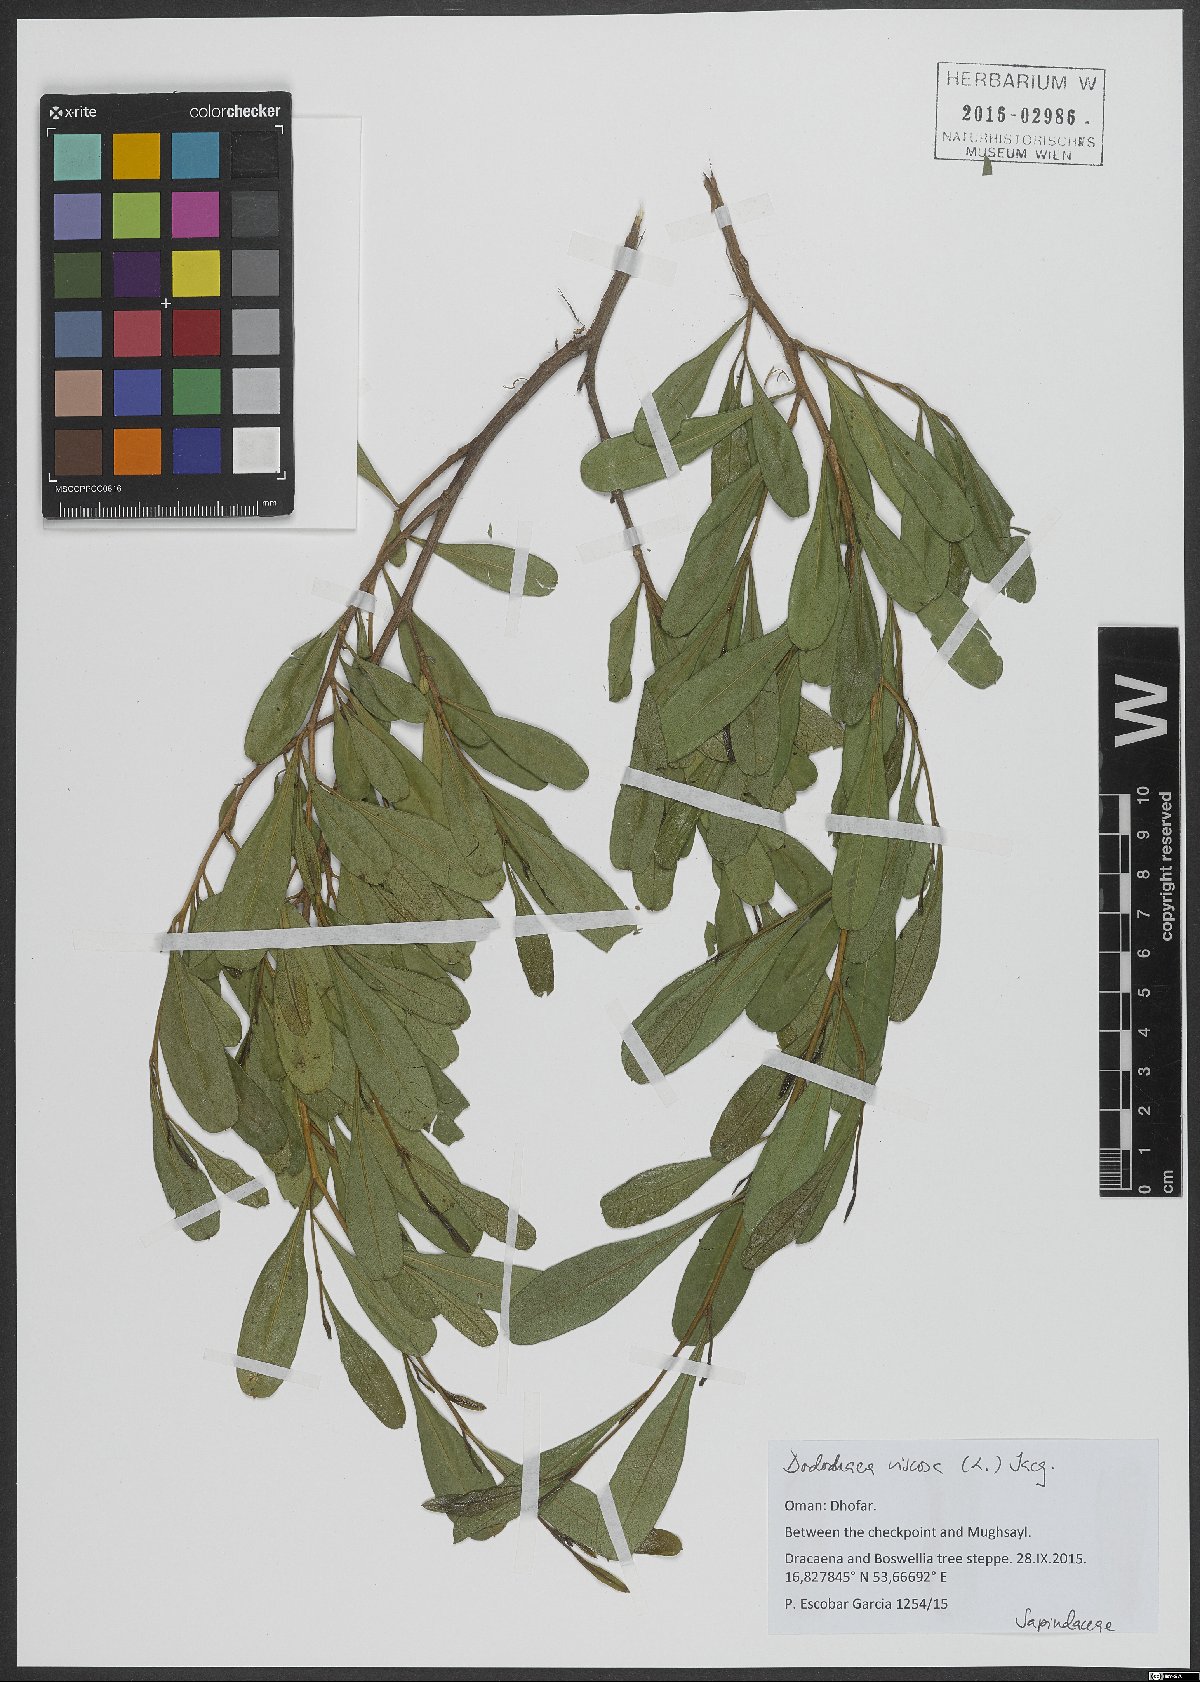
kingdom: Plantae
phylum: Tracheophyta
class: Magnoliopsida
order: Sapindales
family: Sapindaceae
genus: Dodonaea
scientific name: Dodonaea viscosa
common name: Hopbush
